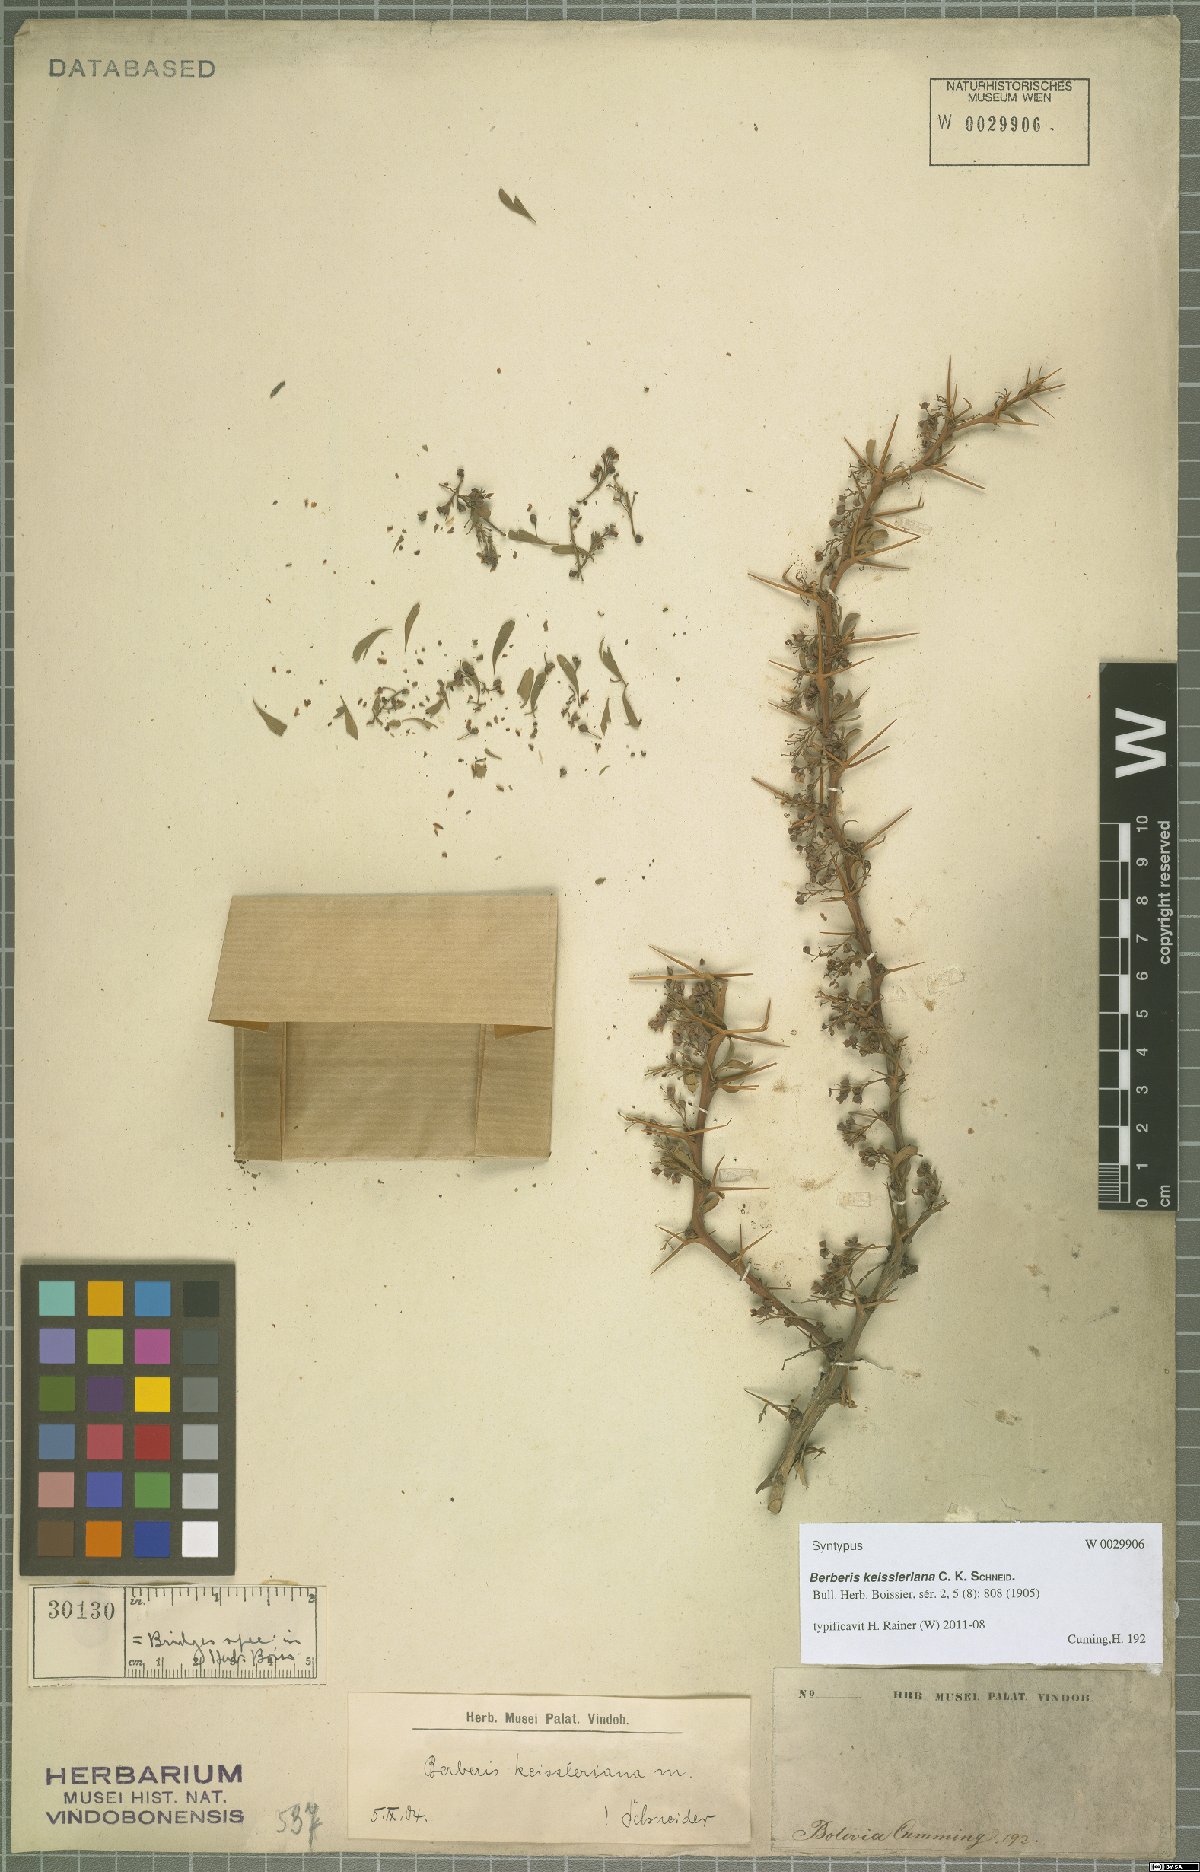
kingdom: Plantae
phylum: Tracheophyta
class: Magnoliopsida
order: Ranunculales
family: Berberidaceae
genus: Berberis
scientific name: Berberis keissleriana
